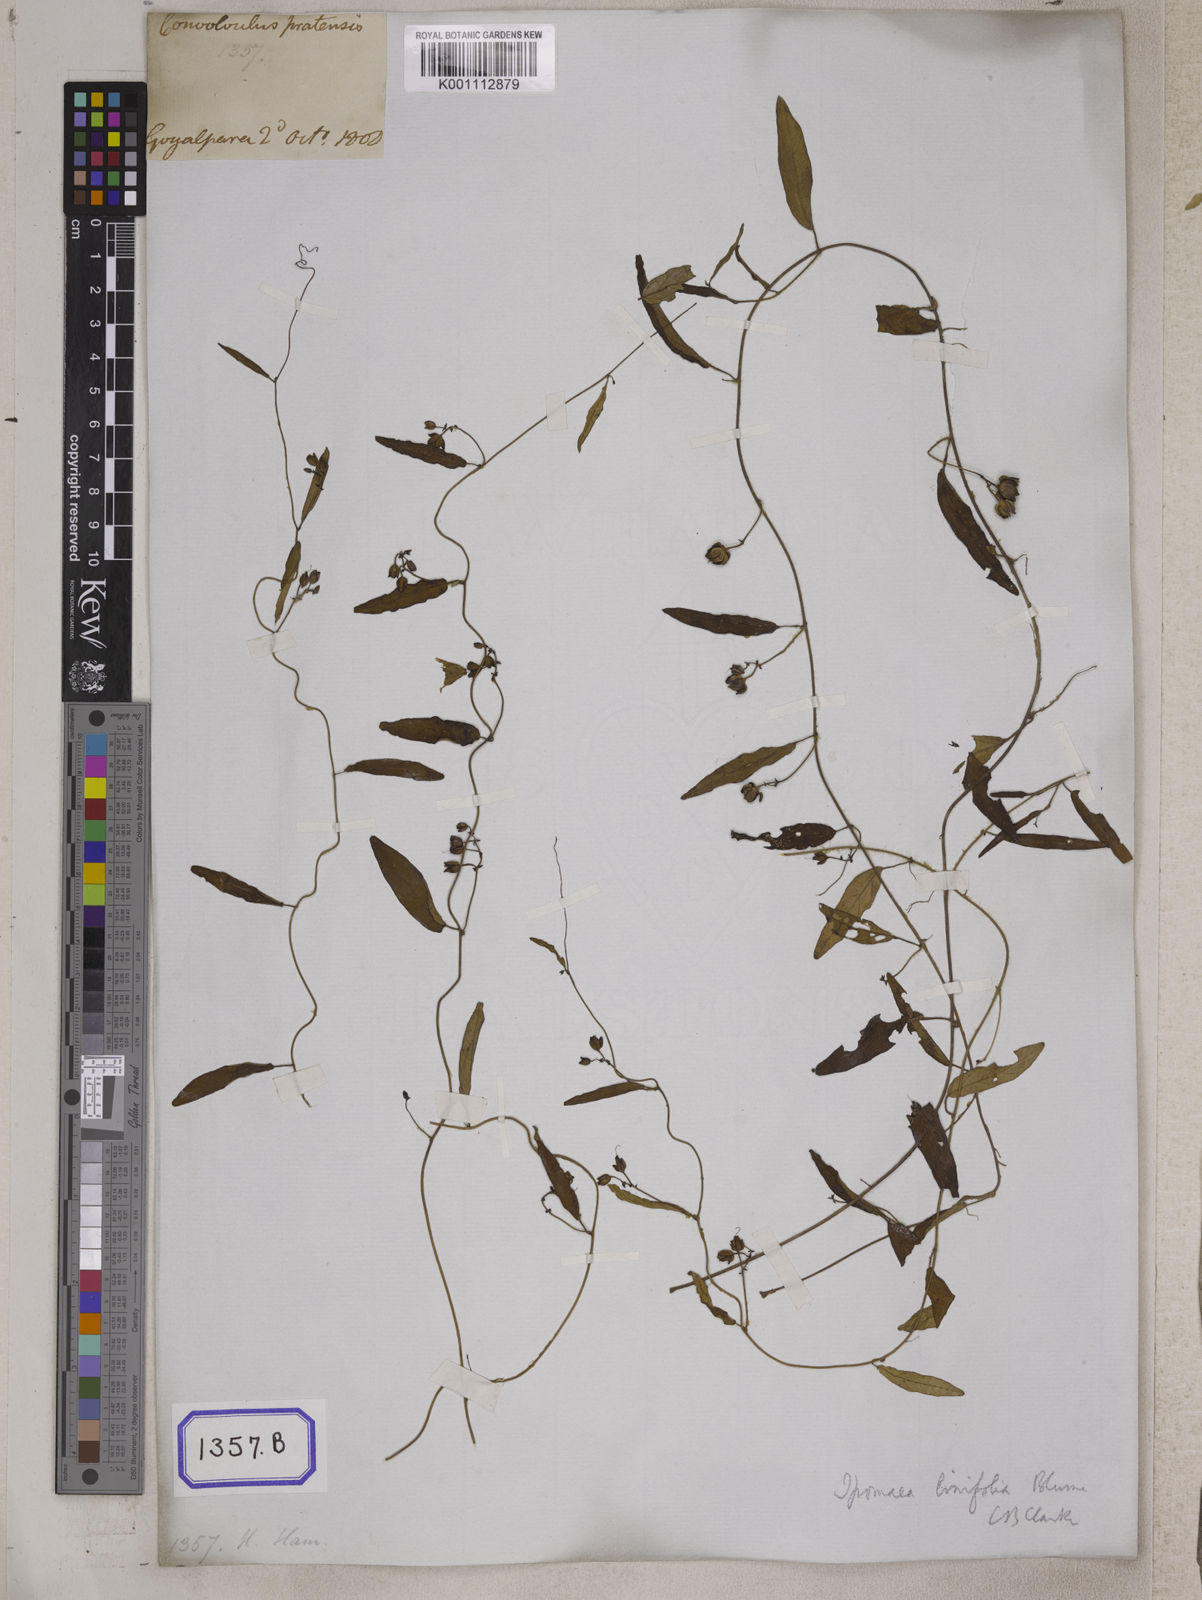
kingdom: Plantae
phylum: Tracheophyta
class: Magnoliopsida
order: Solanales
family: Convolvulaceae
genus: Convolvulus
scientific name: Convolvulus libanoticus
